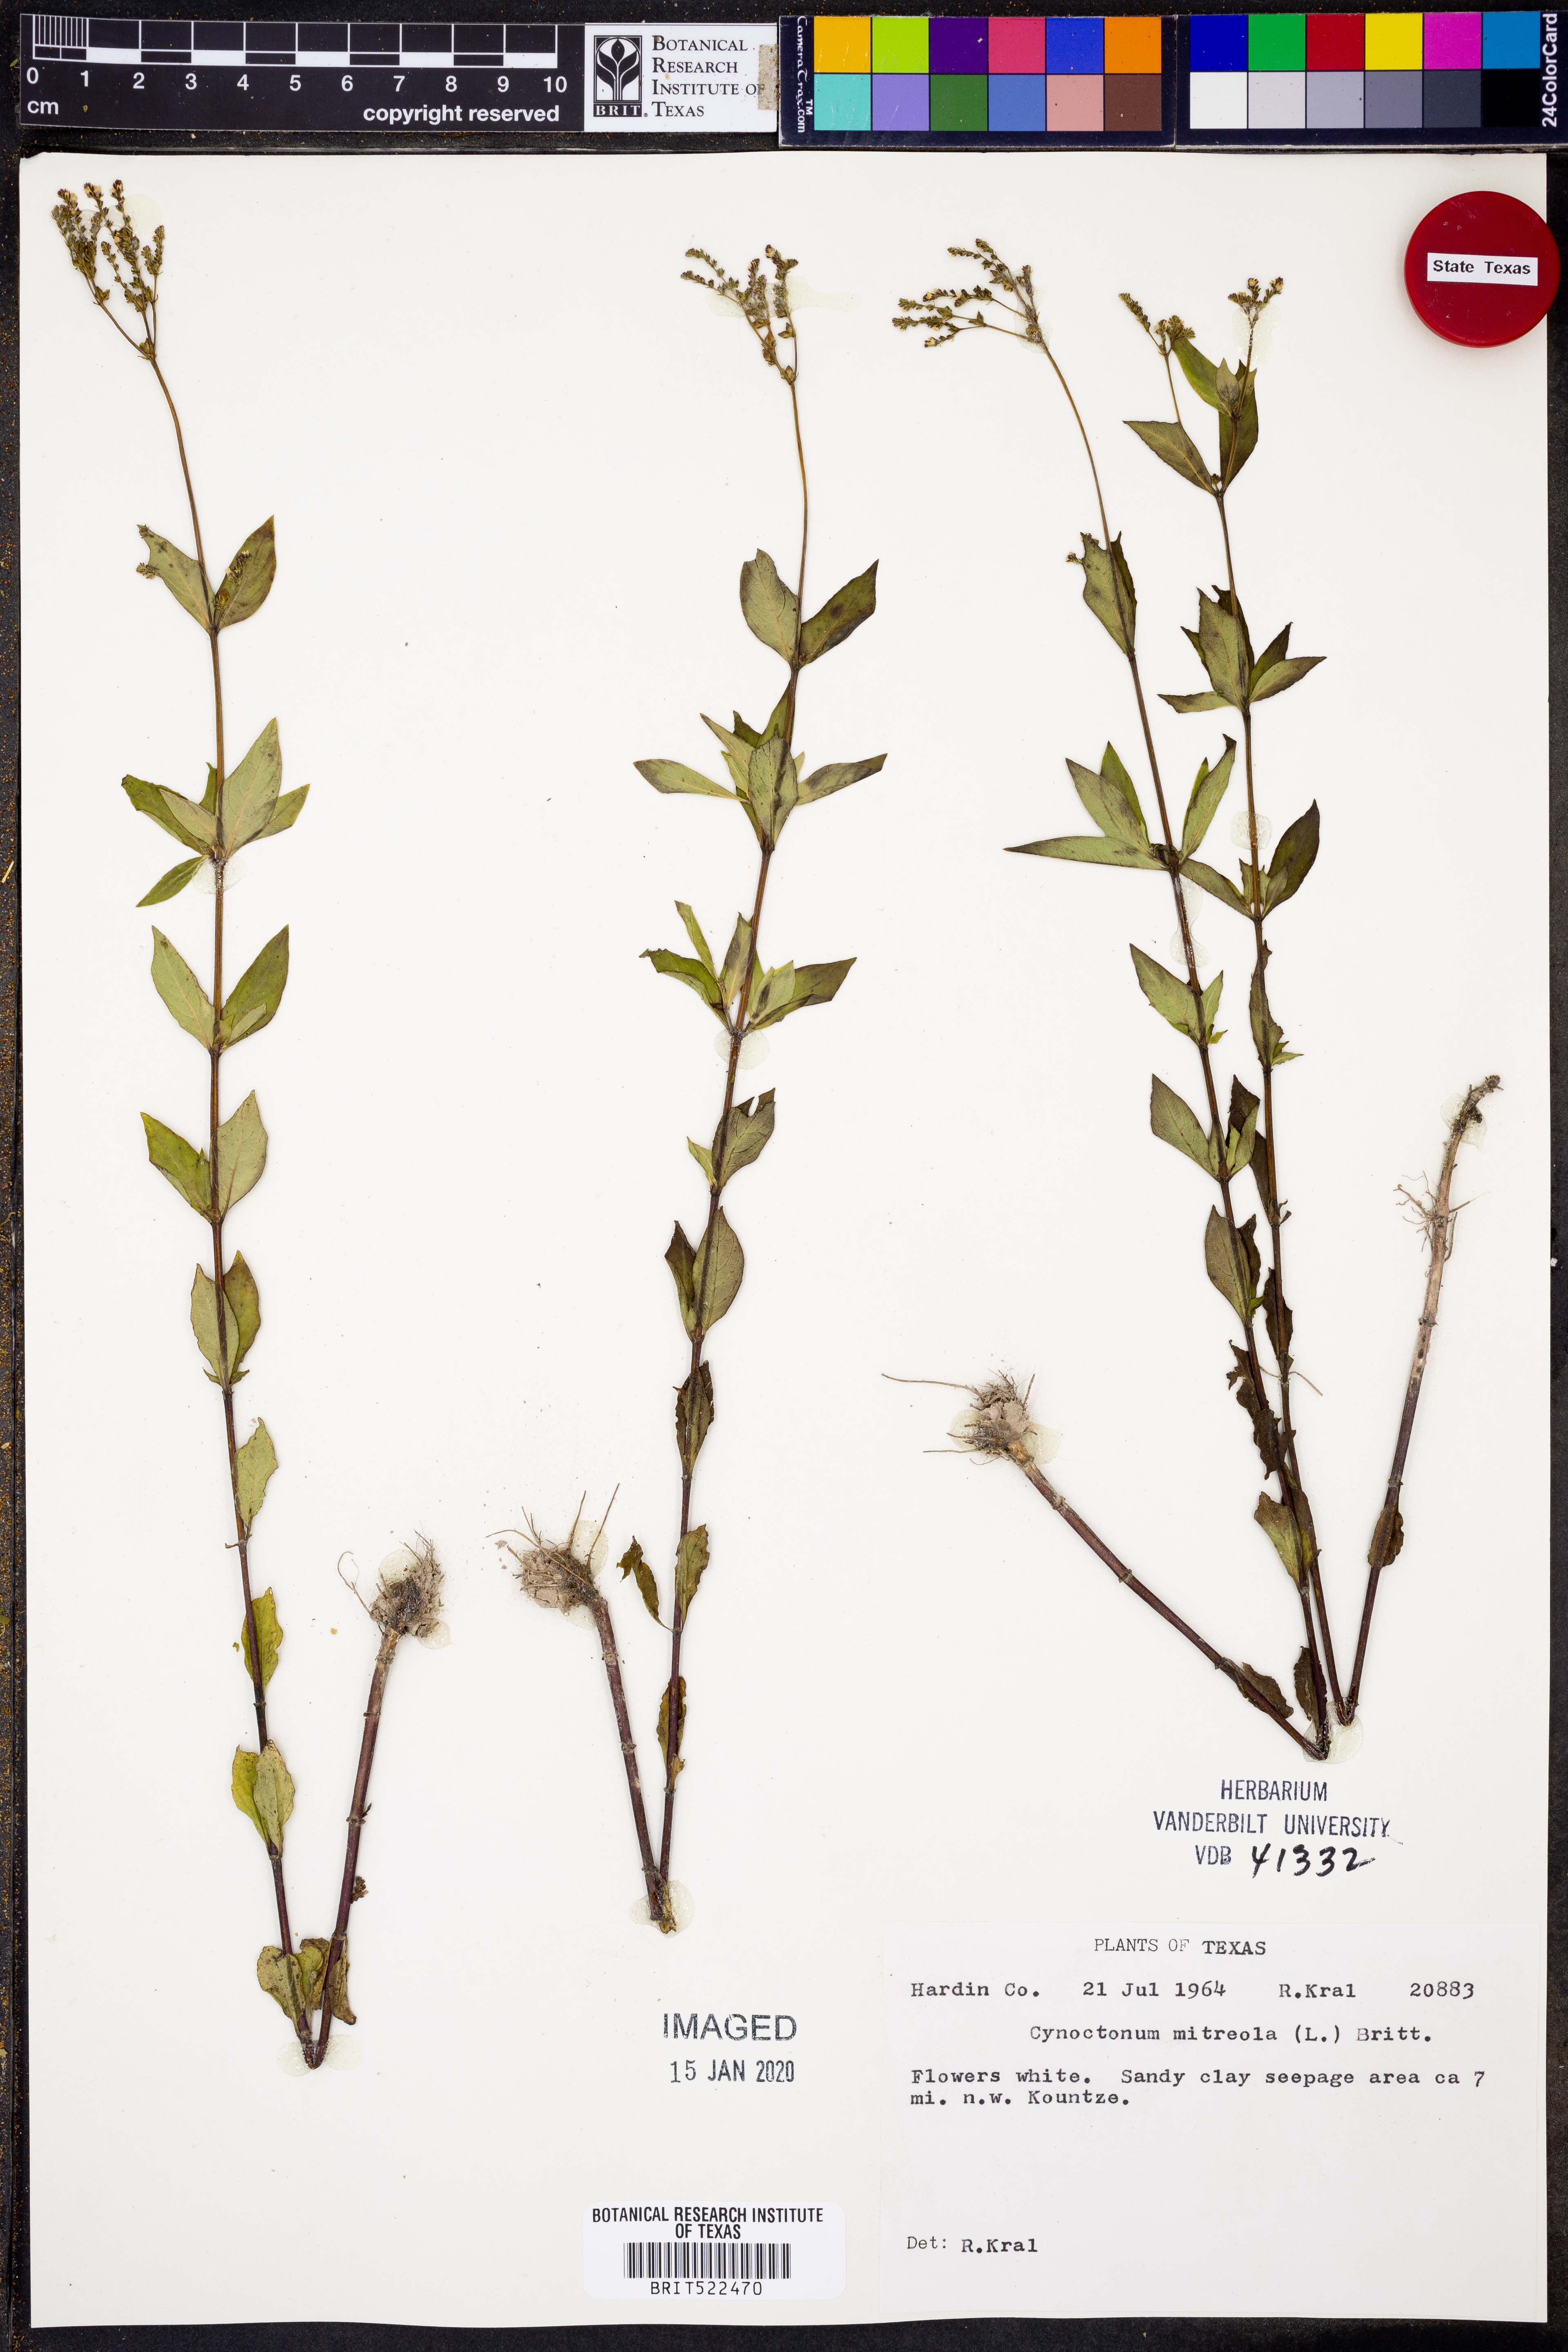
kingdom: Plantae
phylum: Tracheophyta
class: Magnoliopsida
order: Gentianales
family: Loganiaceae
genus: Mitreola
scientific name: Mitreola petiolata
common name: Lax hornpod
